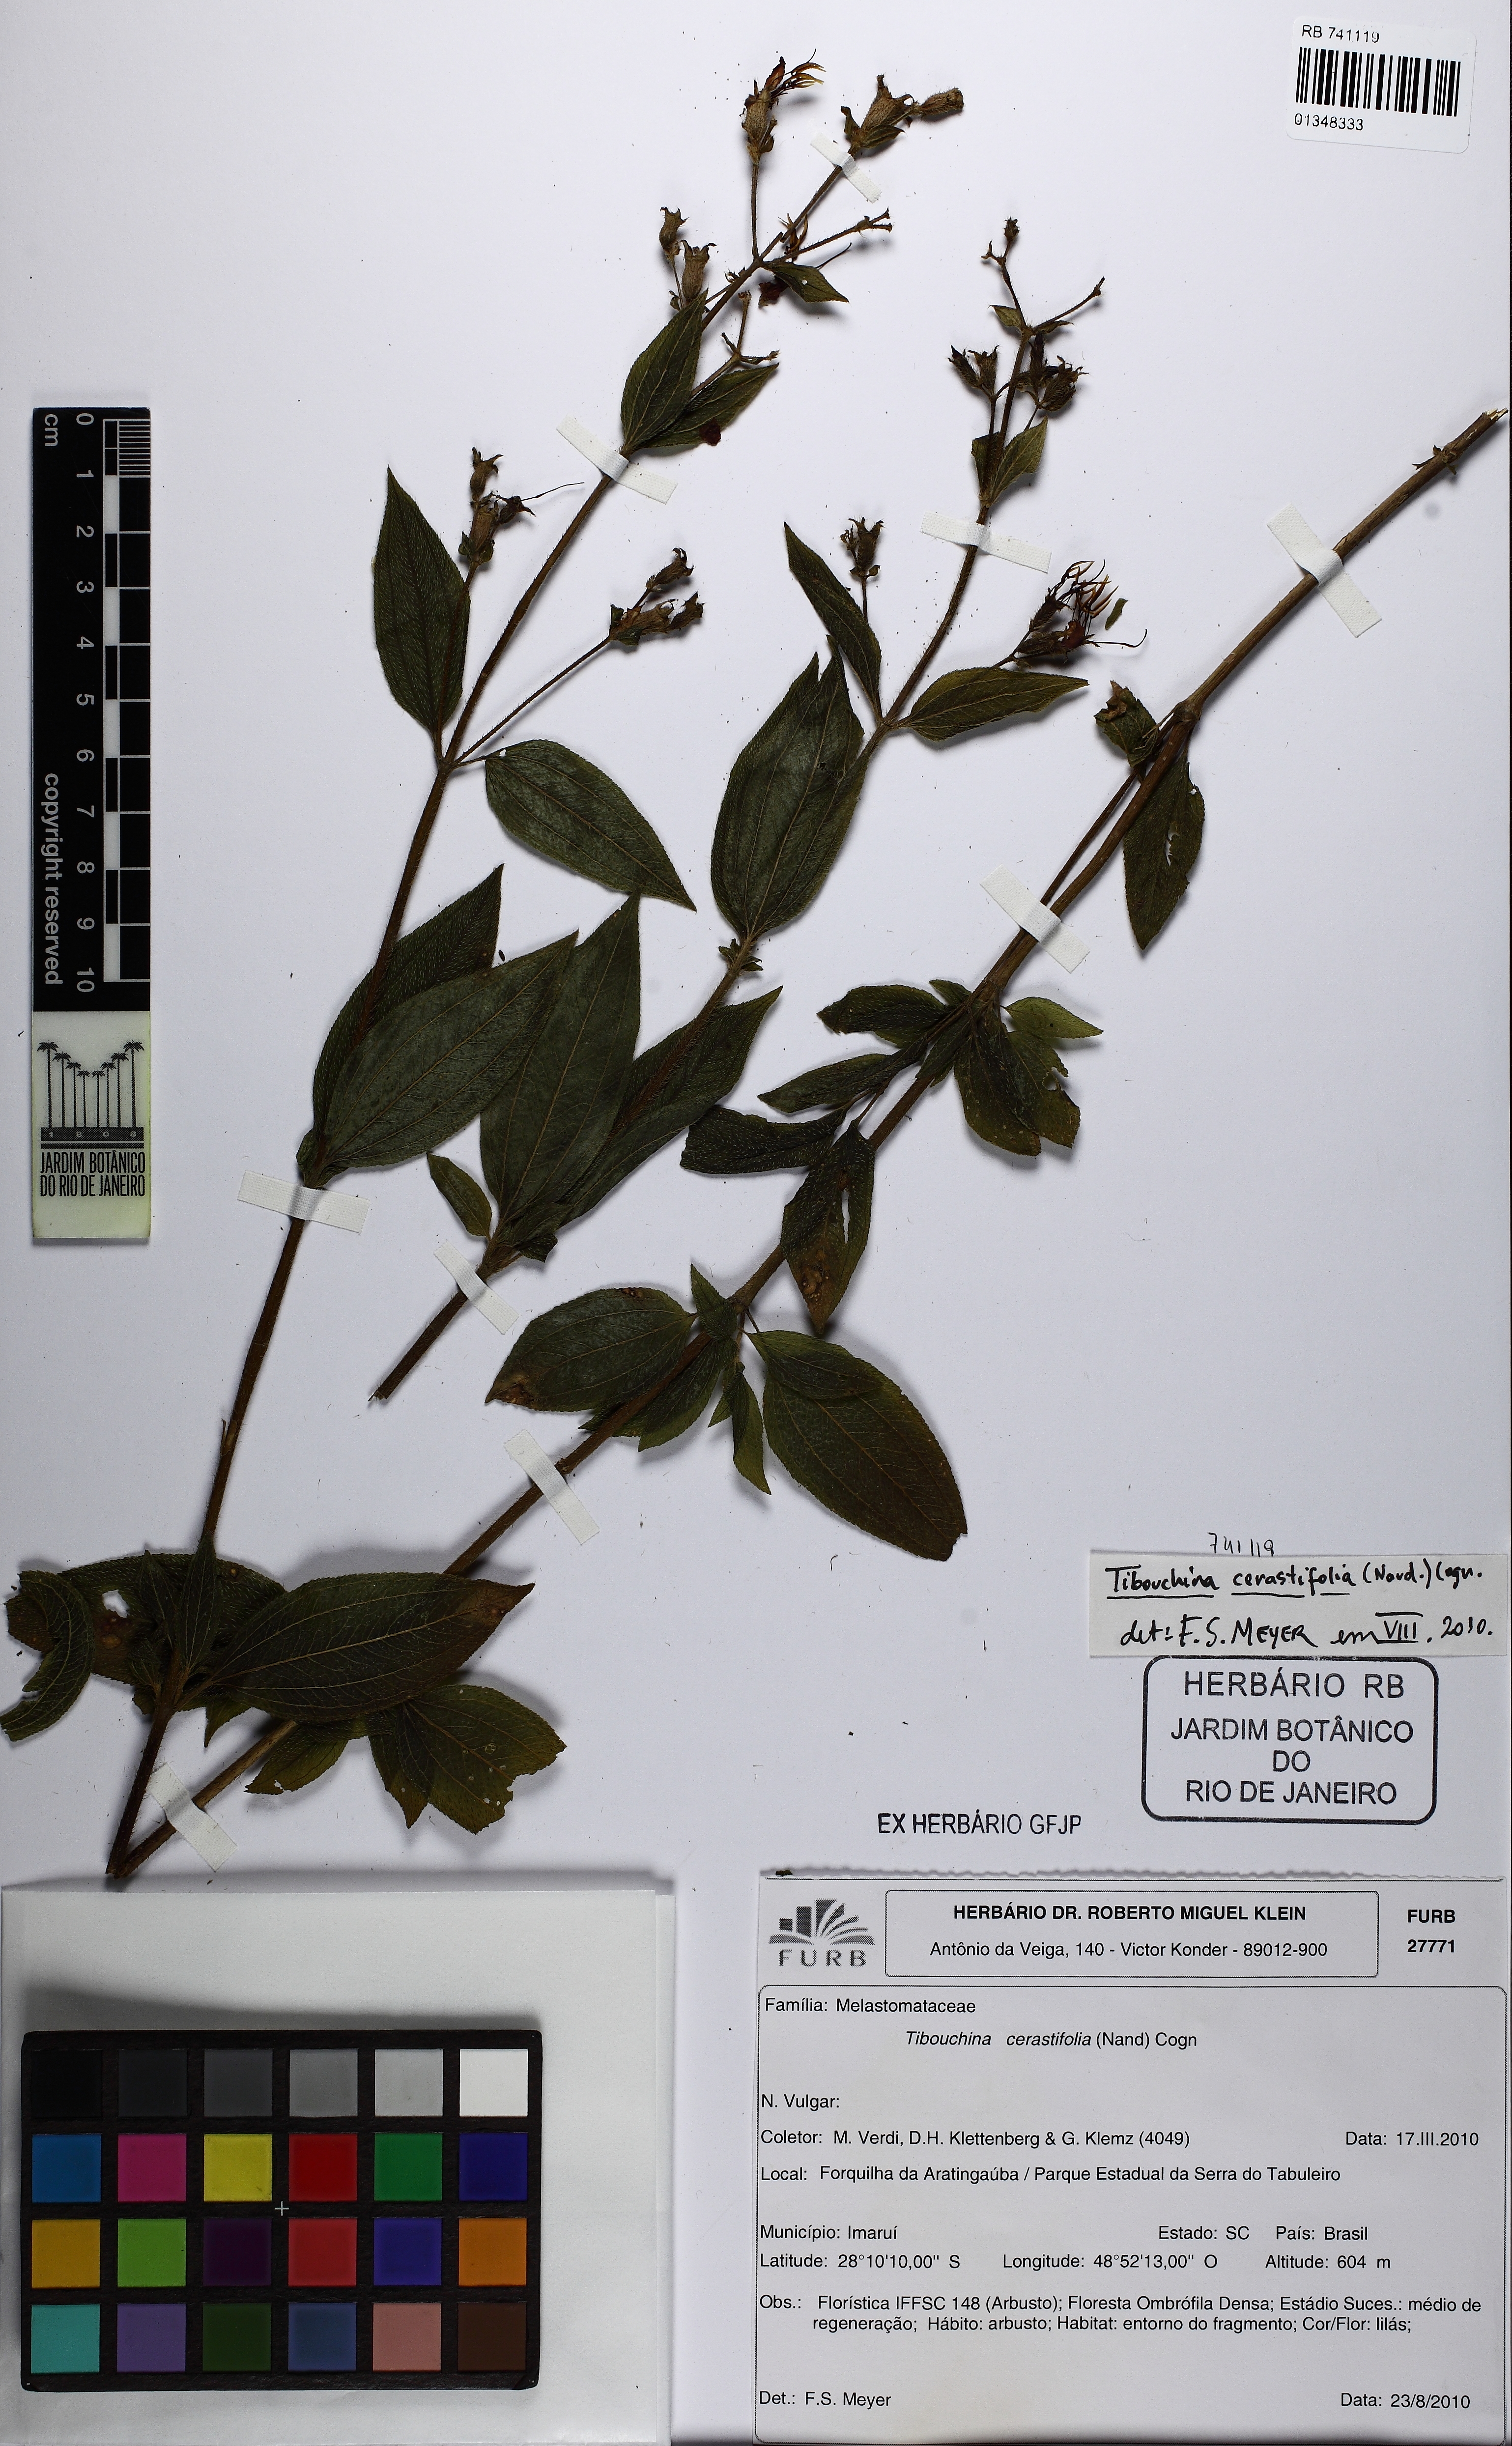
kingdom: Plantae
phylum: Tracheophyta
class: Magnoliopsida
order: Myrtales
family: Melastomataceae
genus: Chaetogastra
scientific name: Chaetogastra cerastifolia
